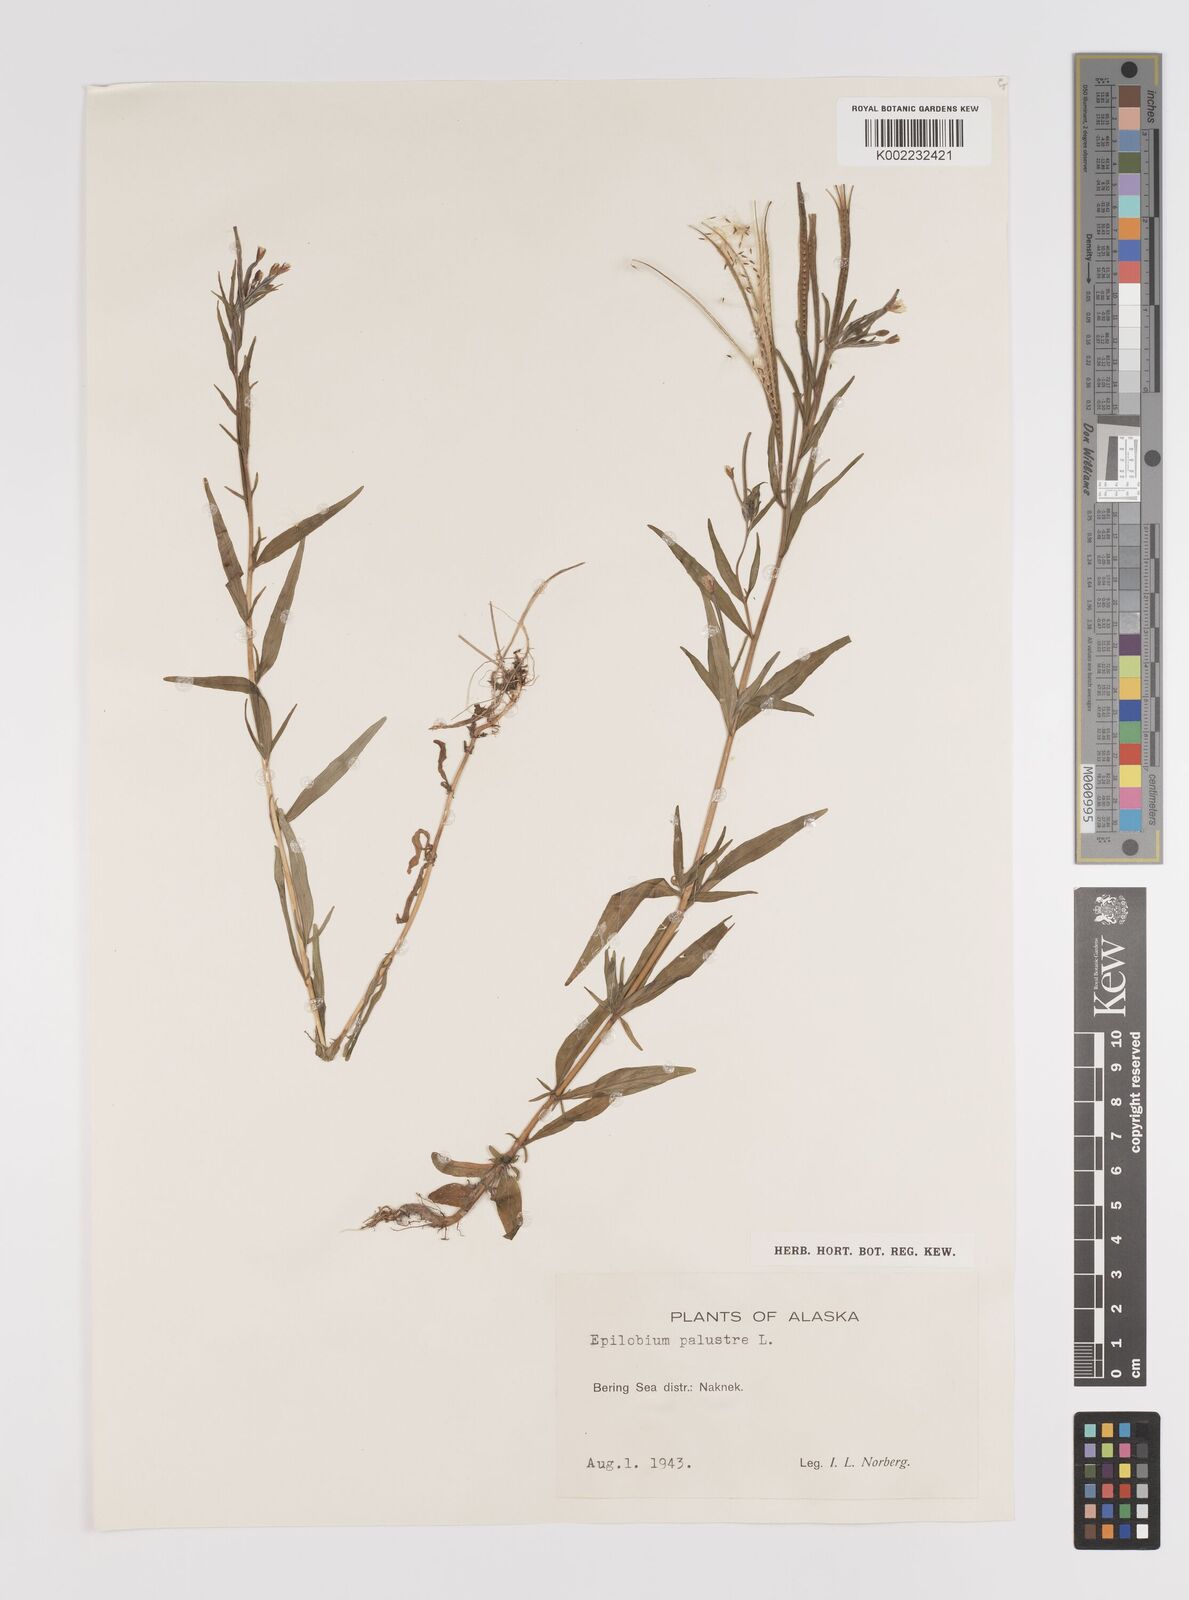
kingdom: Plantae
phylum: Tracheophyta
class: Magnoliopsida
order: Myrtales
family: Onagraceae
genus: Epilobium
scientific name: Epilobium palustre
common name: Marsh willowherb
